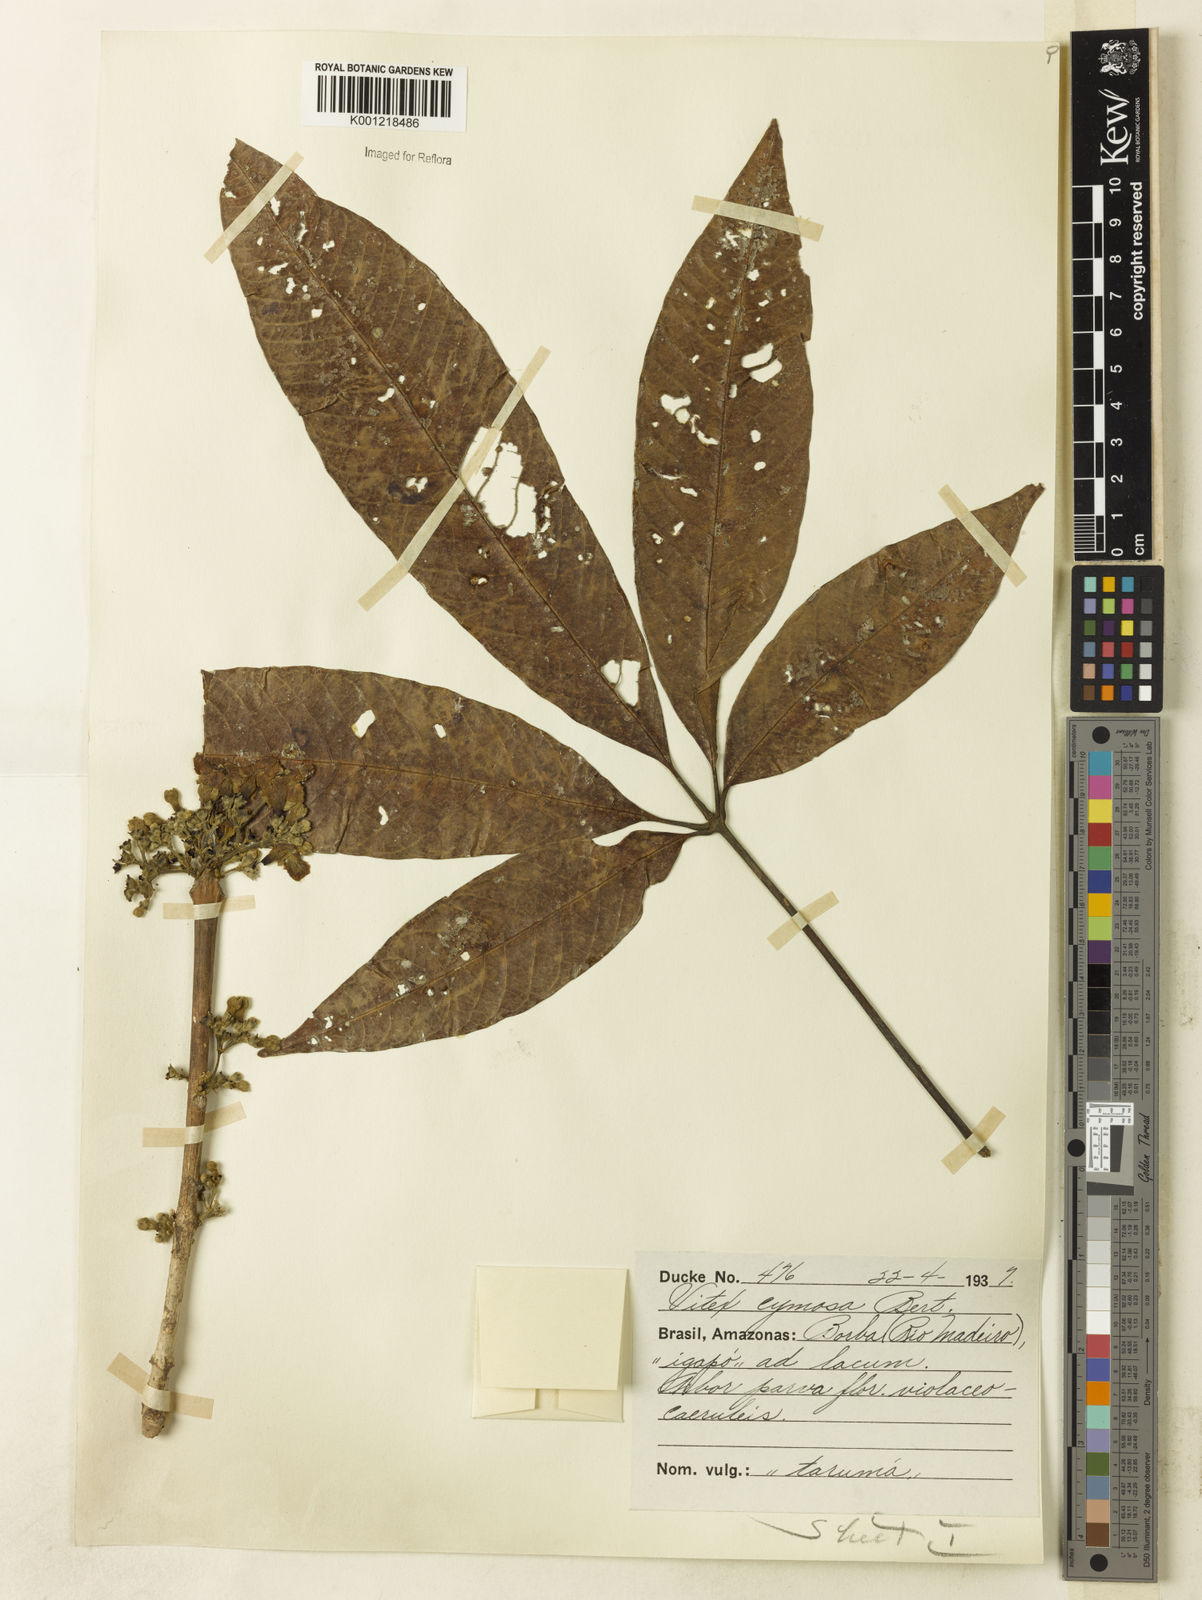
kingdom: Plantae
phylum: Tracheophyta
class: Magnoliopsida
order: Lamiales
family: Lamiaceae
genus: Vitex
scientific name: Vitex cymosa
